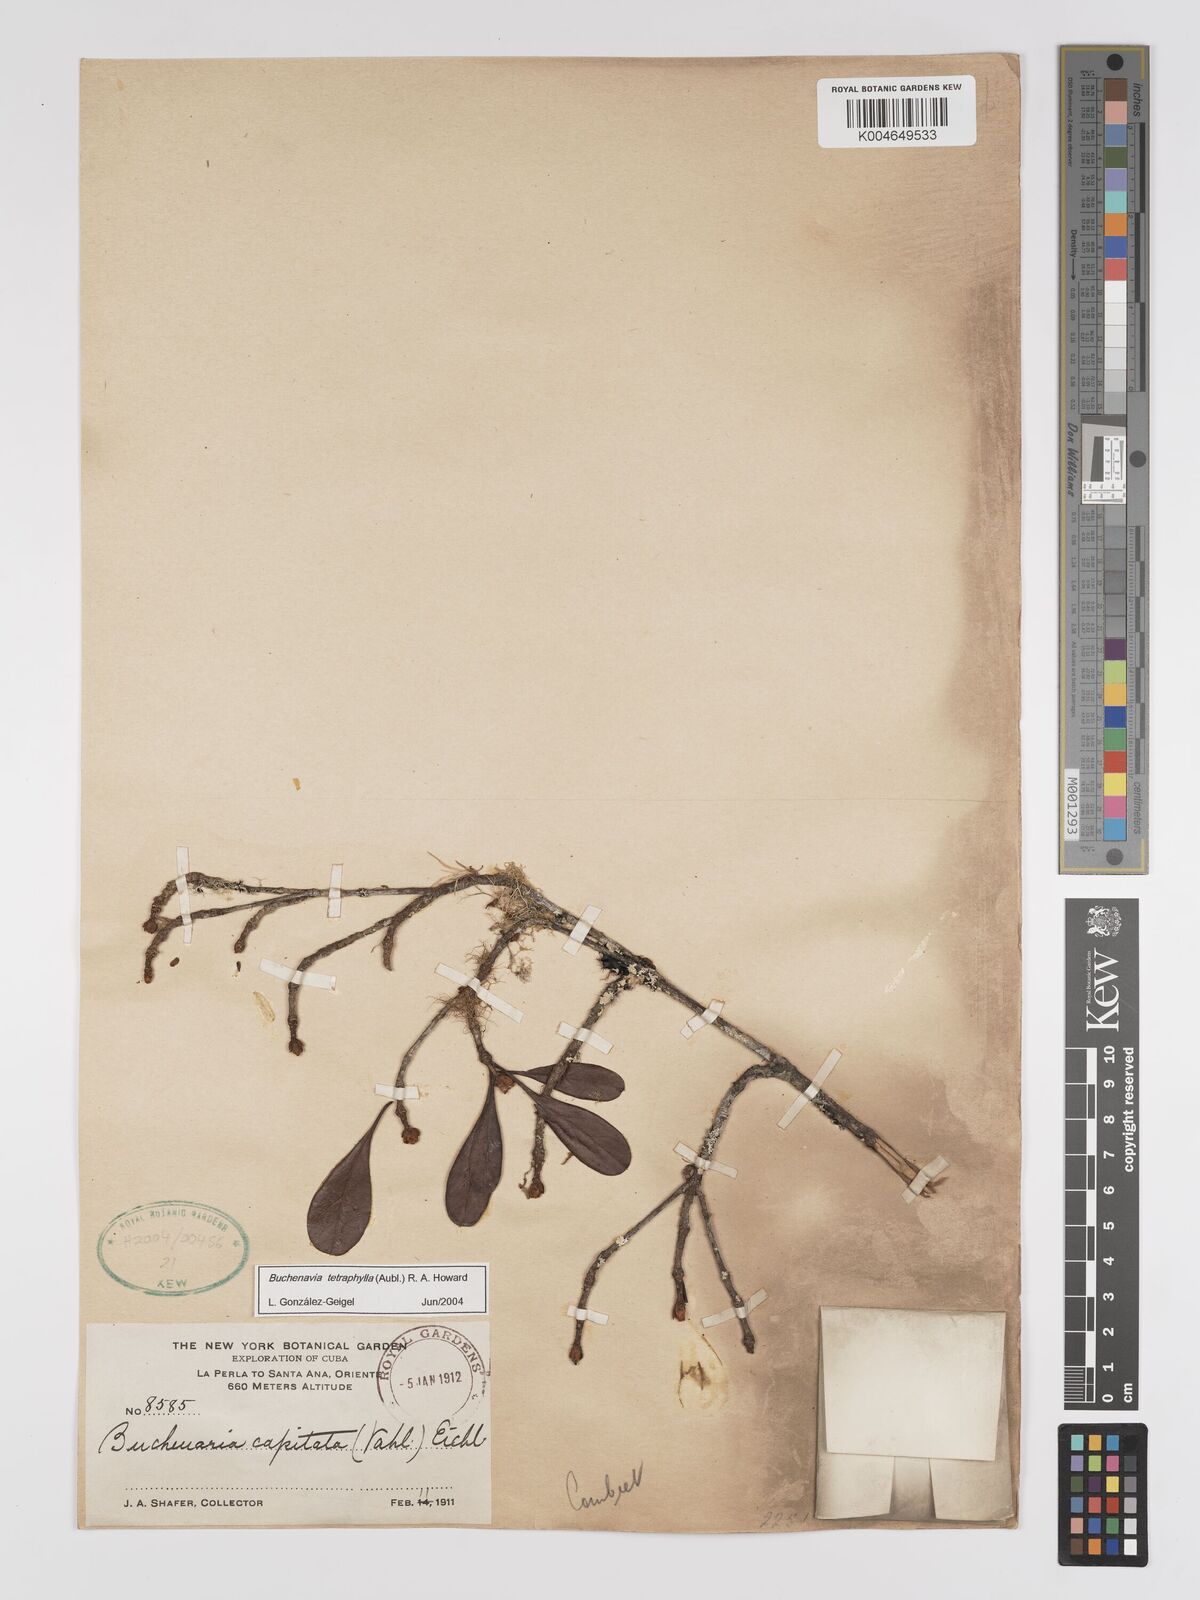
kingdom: Plantae
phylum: Tracheophyta
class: Magnoliopsida
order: Myrtales
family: Combretaceae
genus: Terminalia
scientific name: Terminalia tetraphylla
